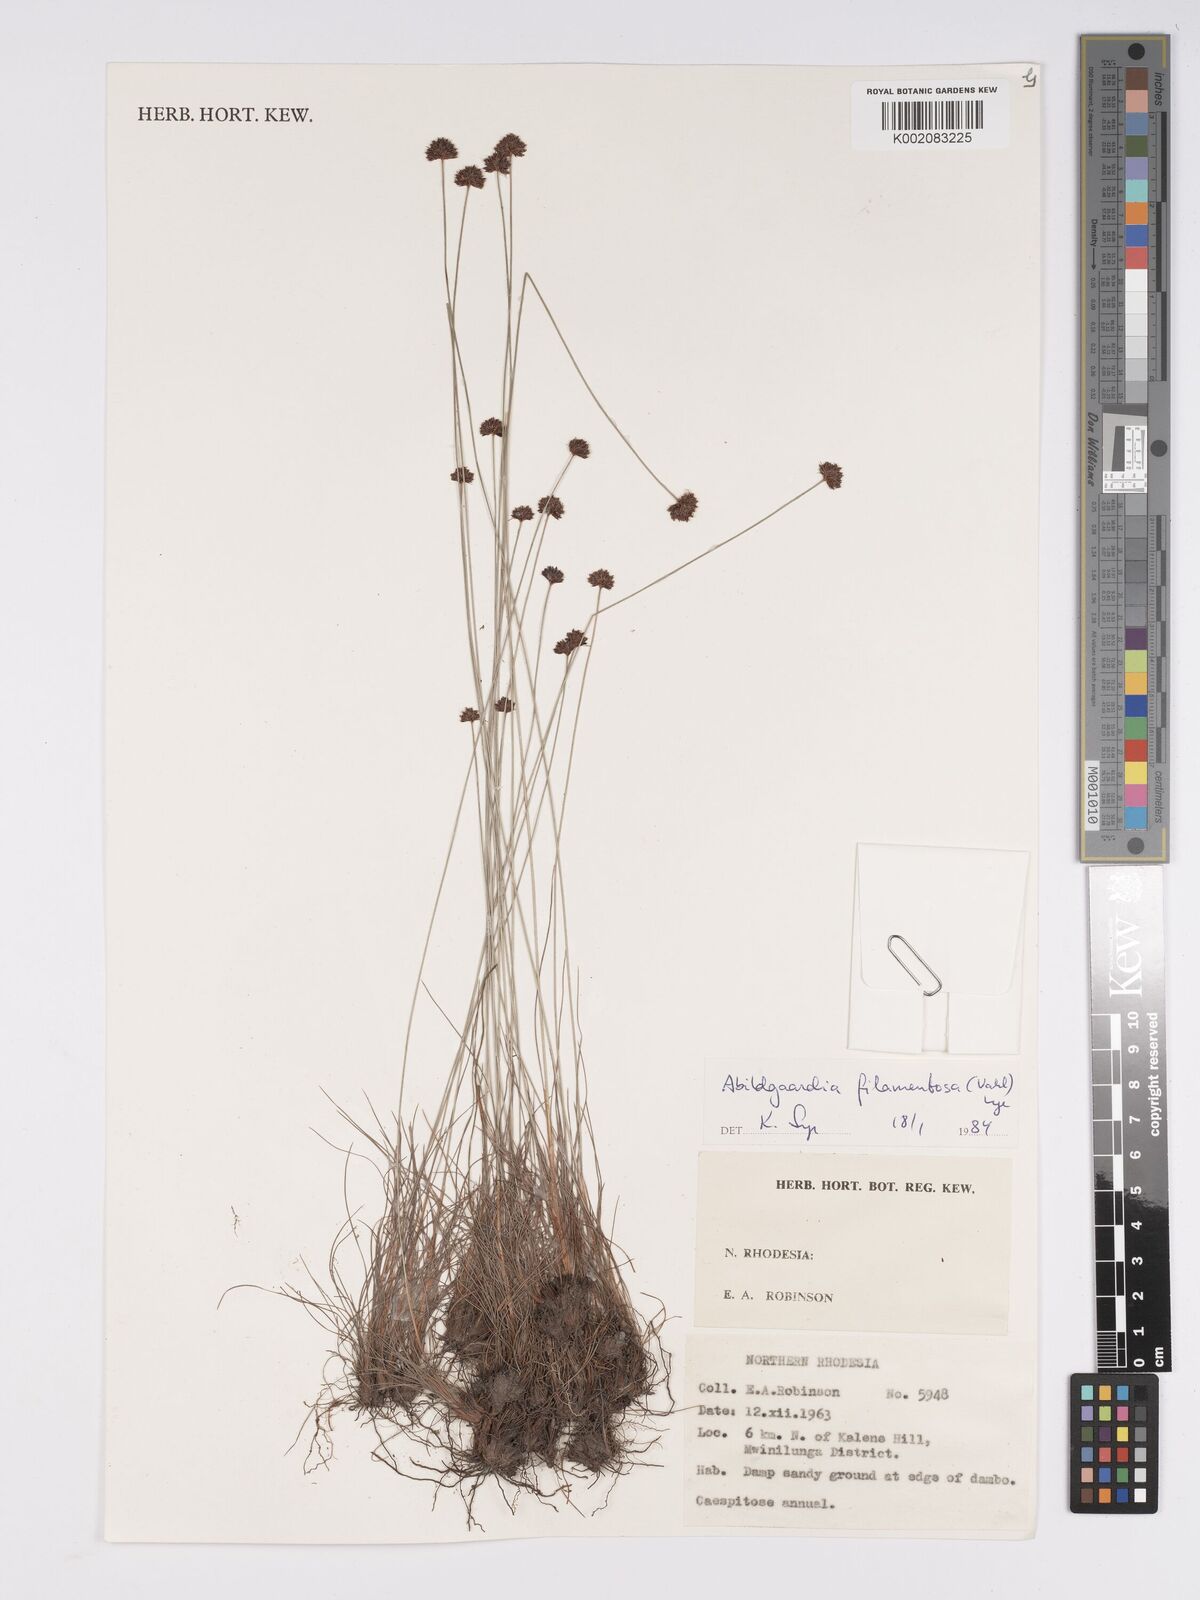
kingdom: Plantae
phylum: Tracheophyta
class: Liliopsida
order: Poales
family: Cyperaceae
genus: Bulbostylis
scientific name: Bulbostylis filamentosa
